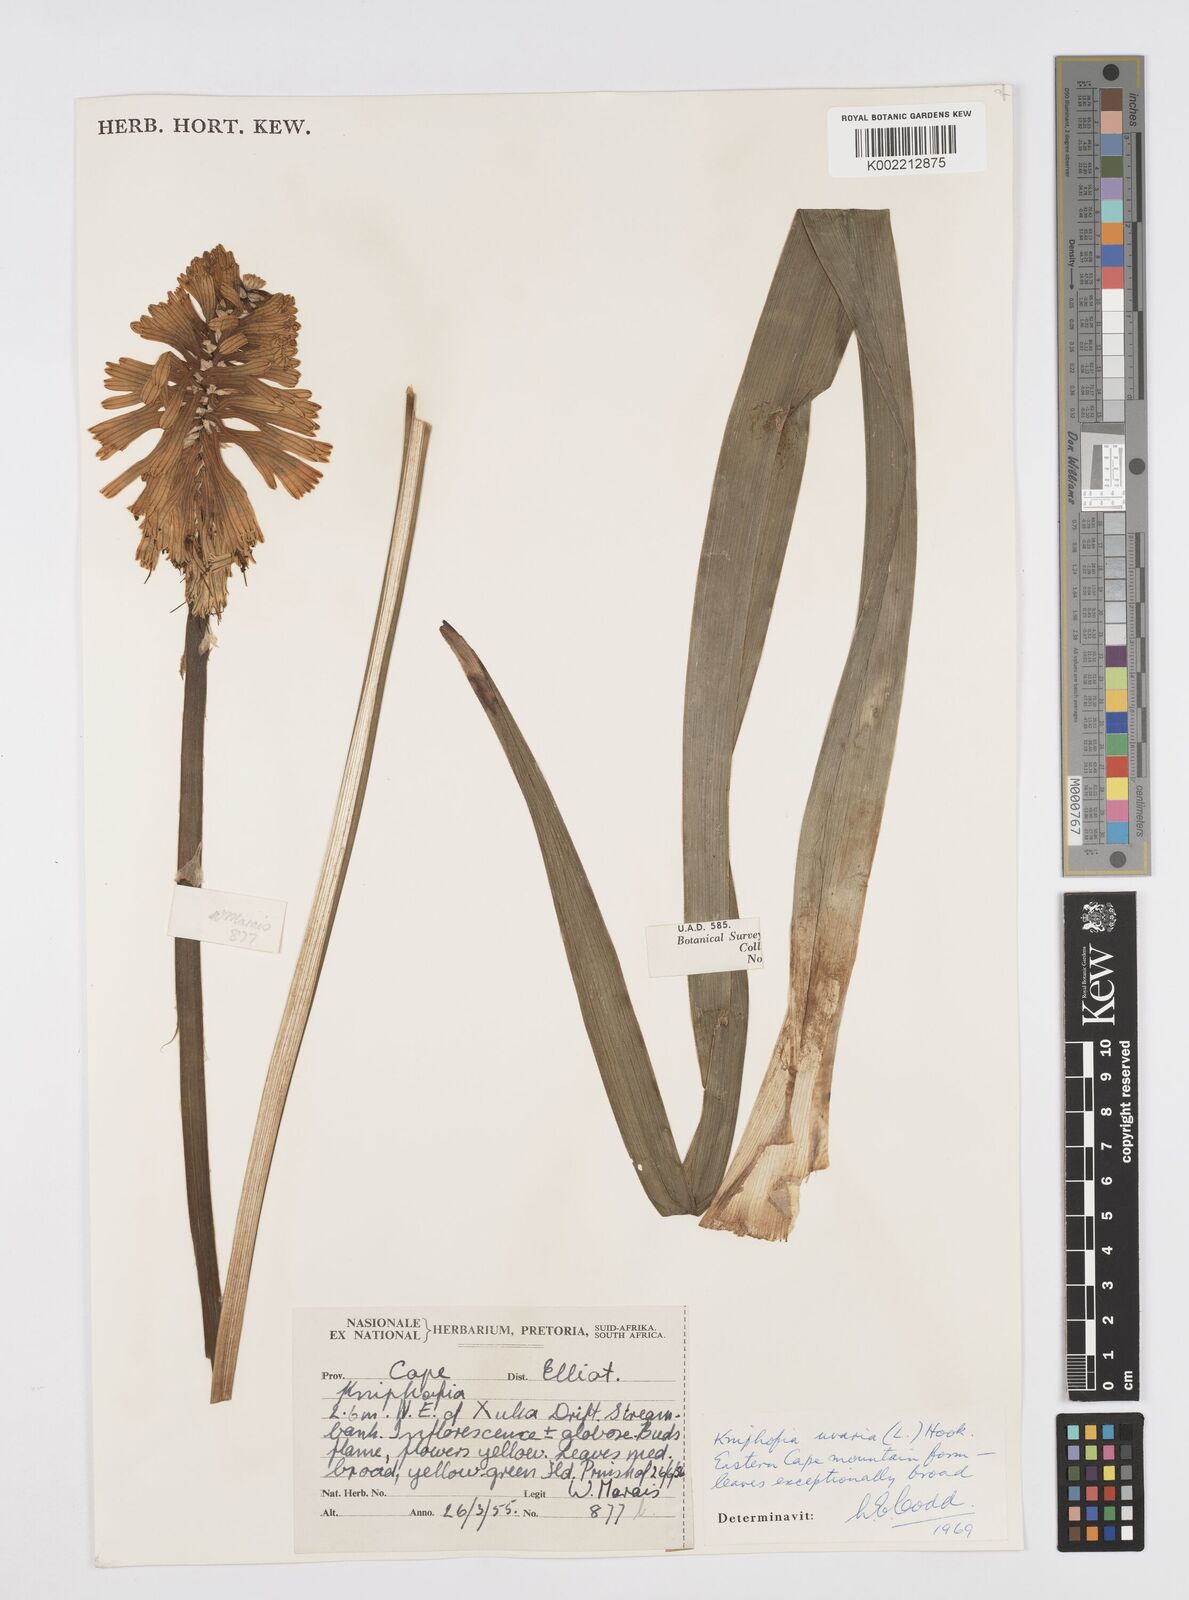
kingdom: Plantae
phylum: Tracheophyta
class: Liliopsida
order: Asparagales
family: Asphodelaceae
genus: Kniphofia
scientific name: Kniphofia uvaria
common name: Red-hot-poker
